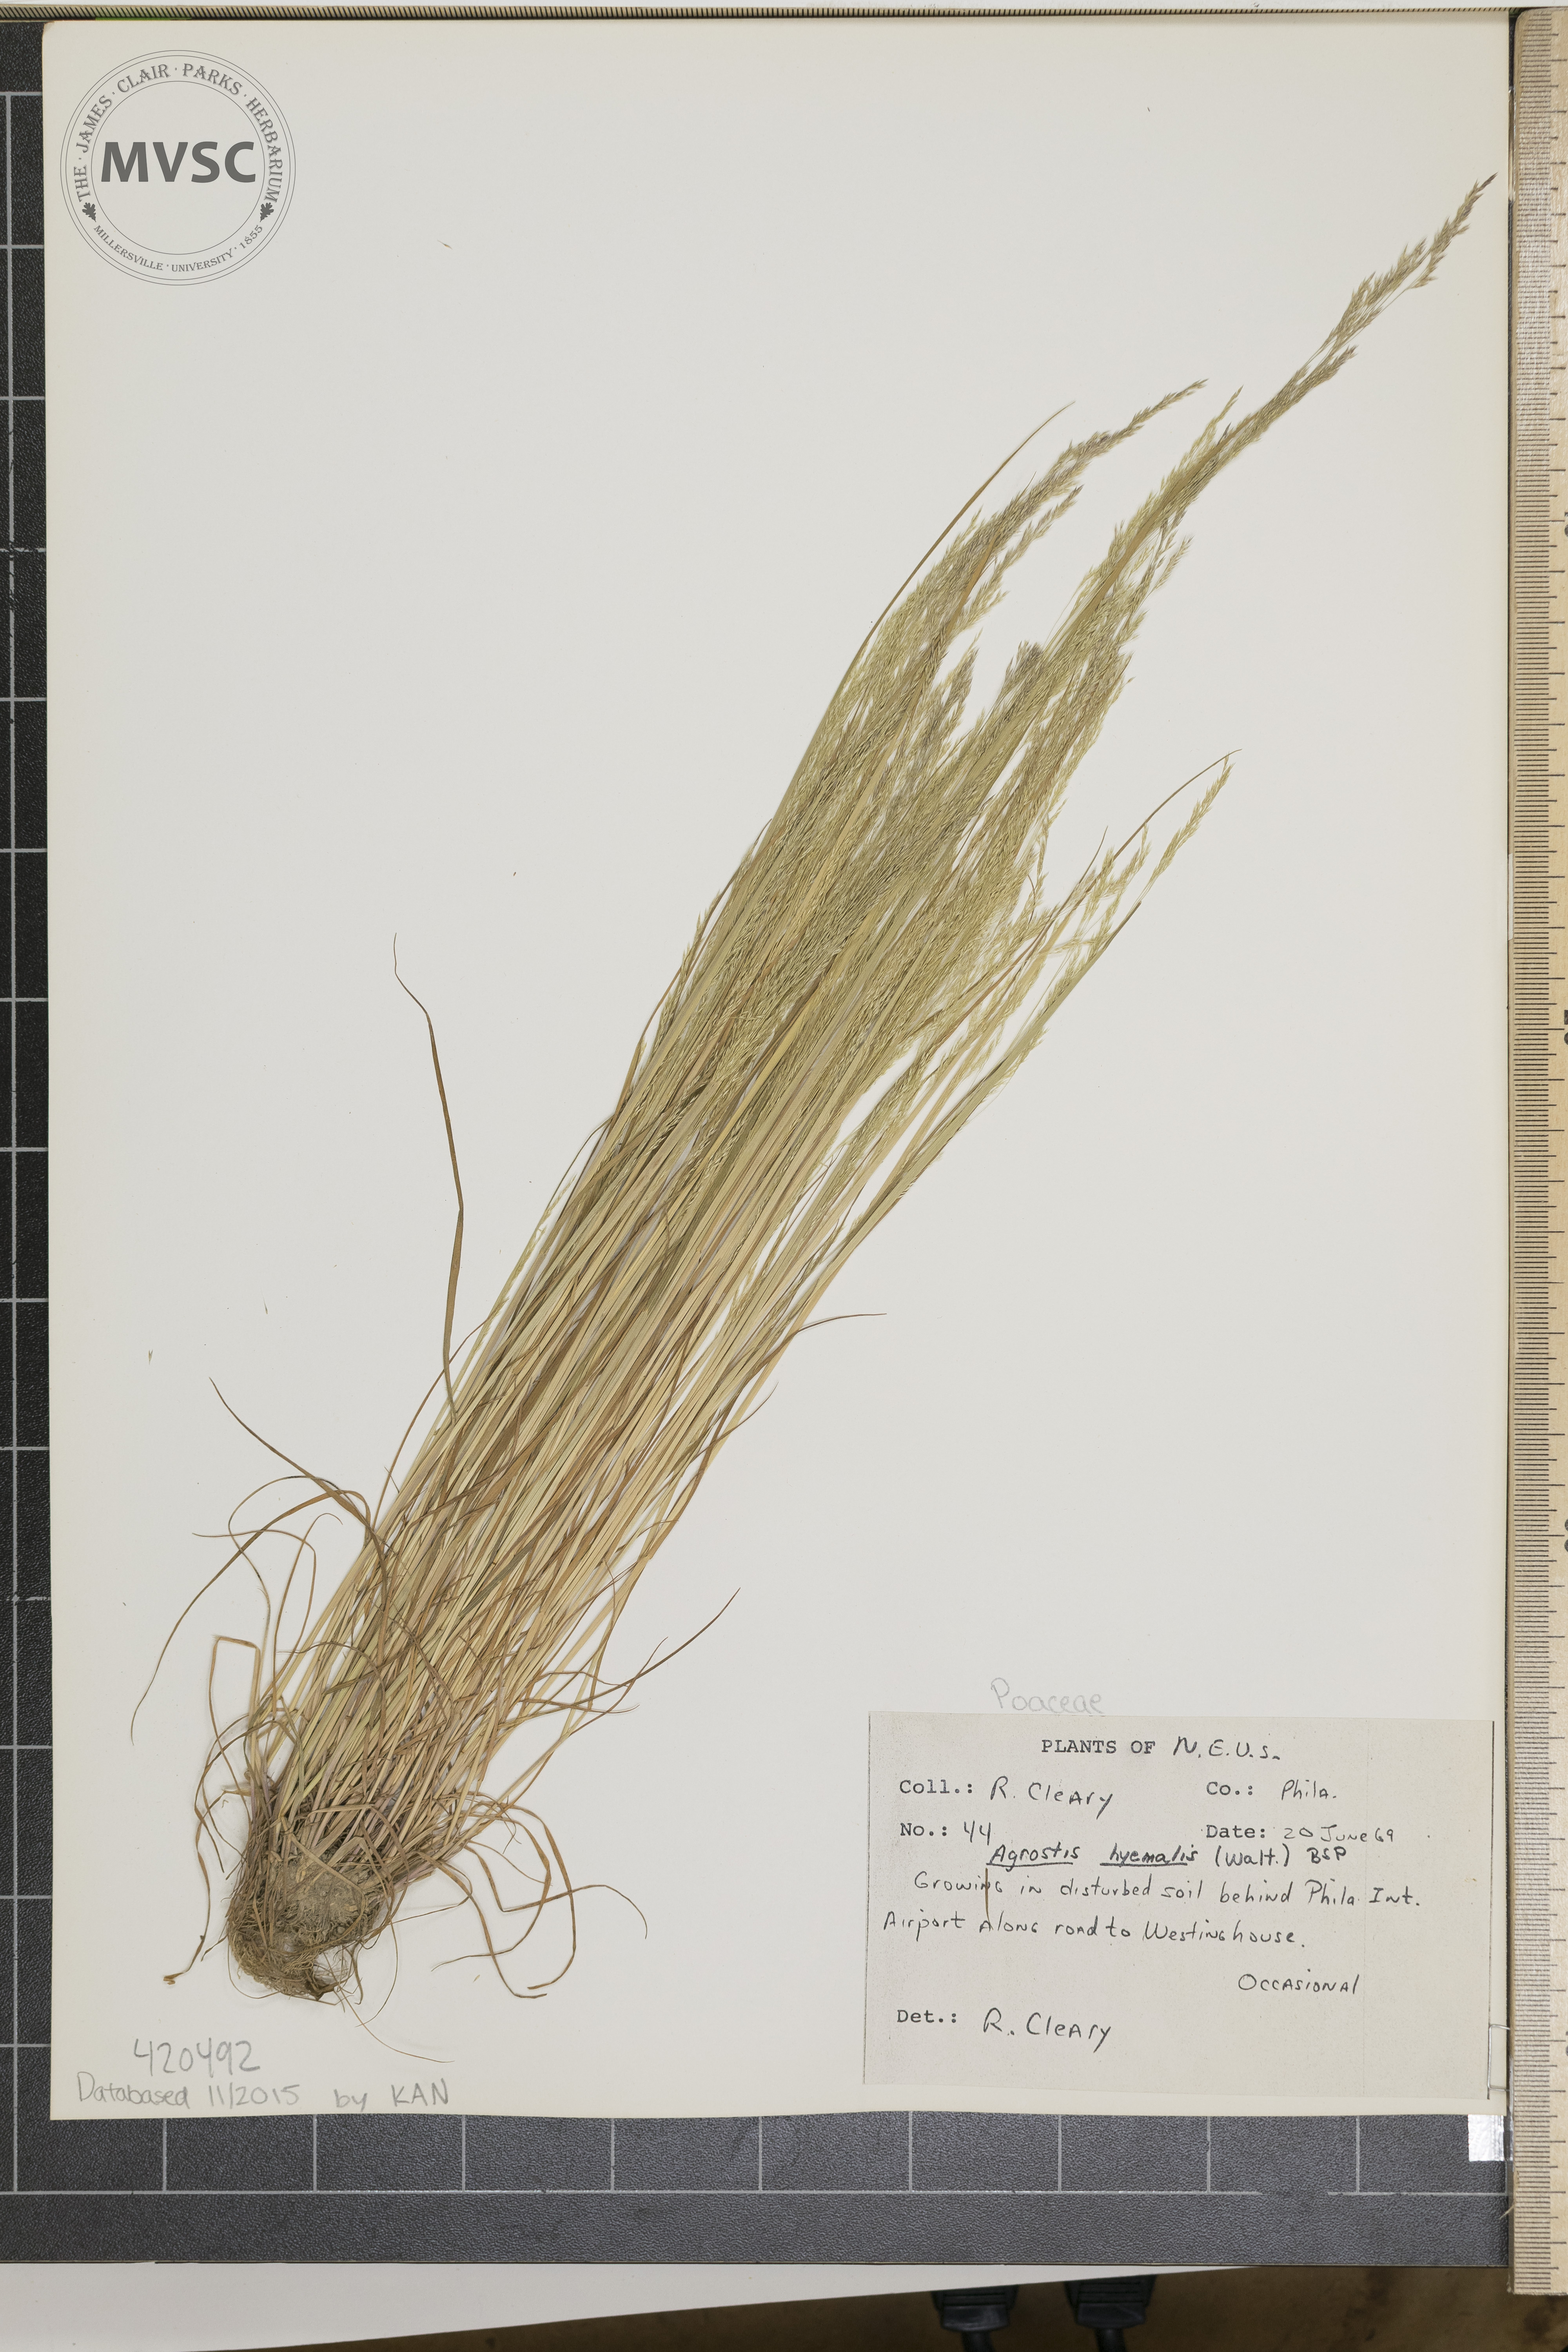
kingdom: Plantae
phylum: Tracheophyta
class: Liliopsida
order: Poales
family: Poaceae
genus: Agrostis
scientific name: Agrostis hyemalis
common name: Winter Bent Grass
